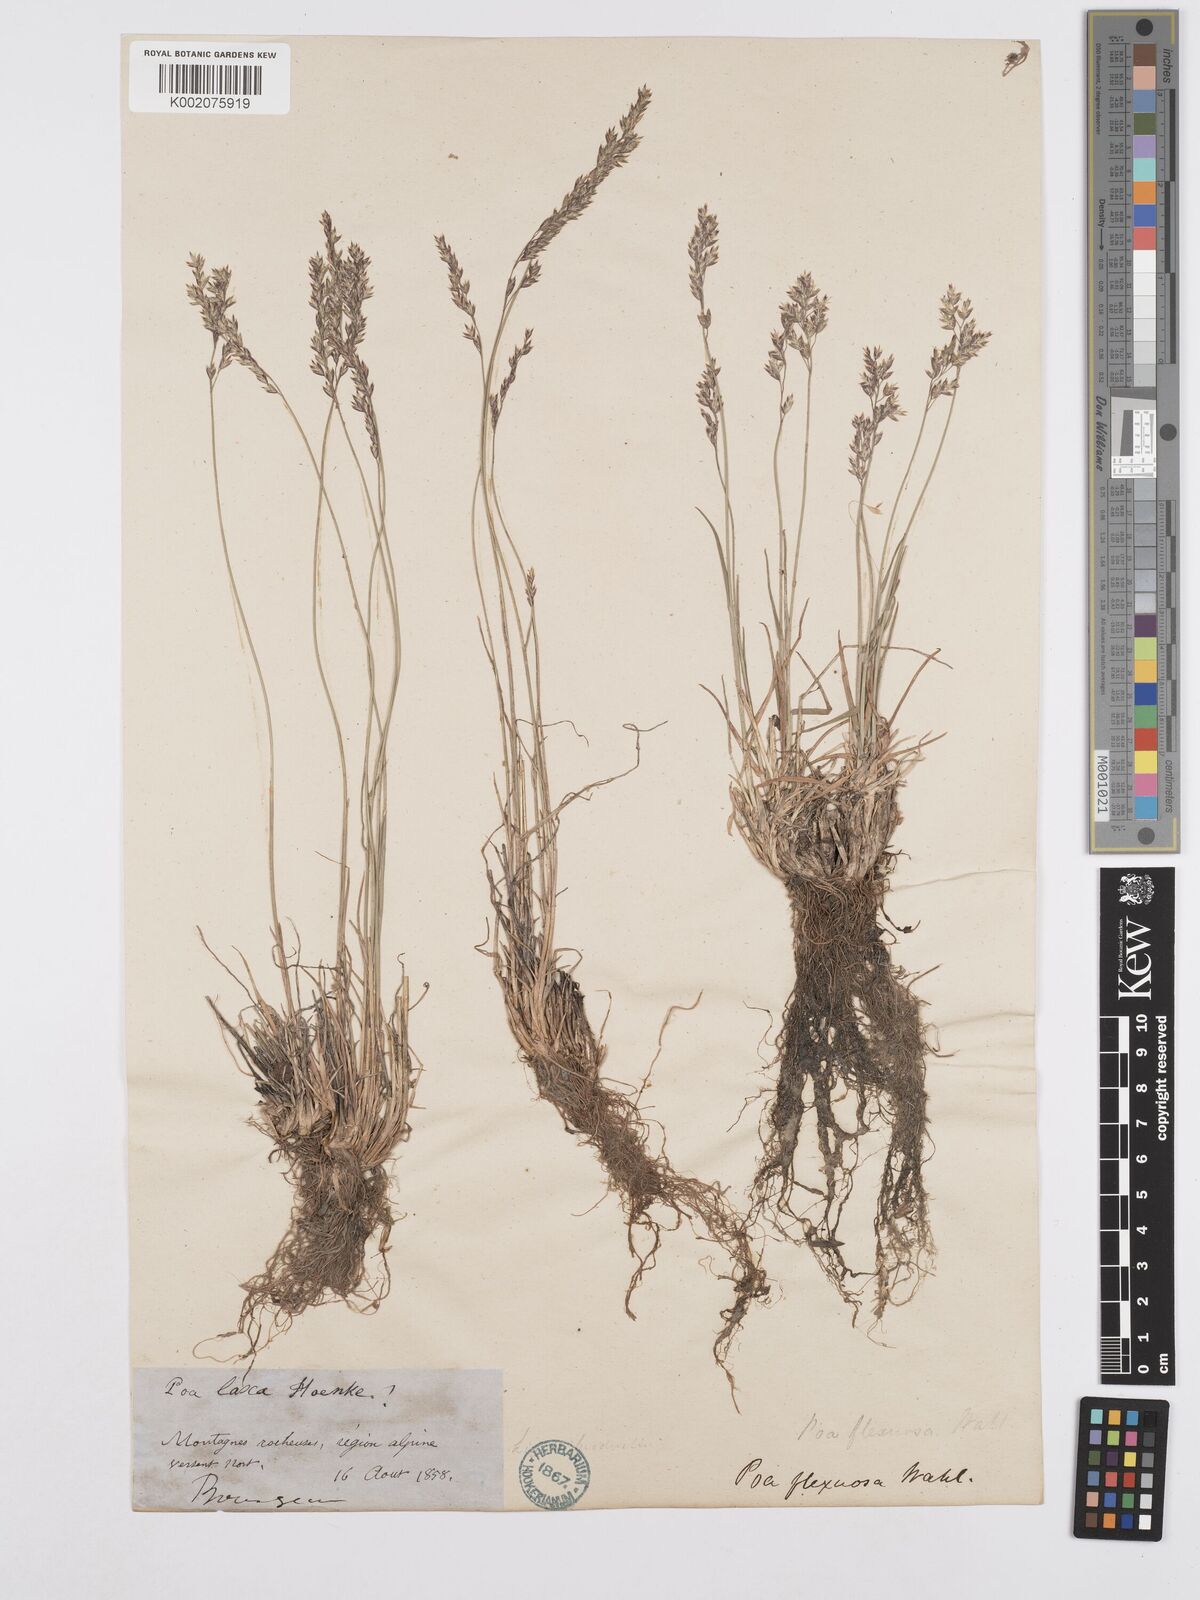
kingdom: Plantae
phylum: Tracheophyta
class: Liliopsida
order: Poales
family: Poaceae
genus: Poa
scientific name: Poa autumnalis
